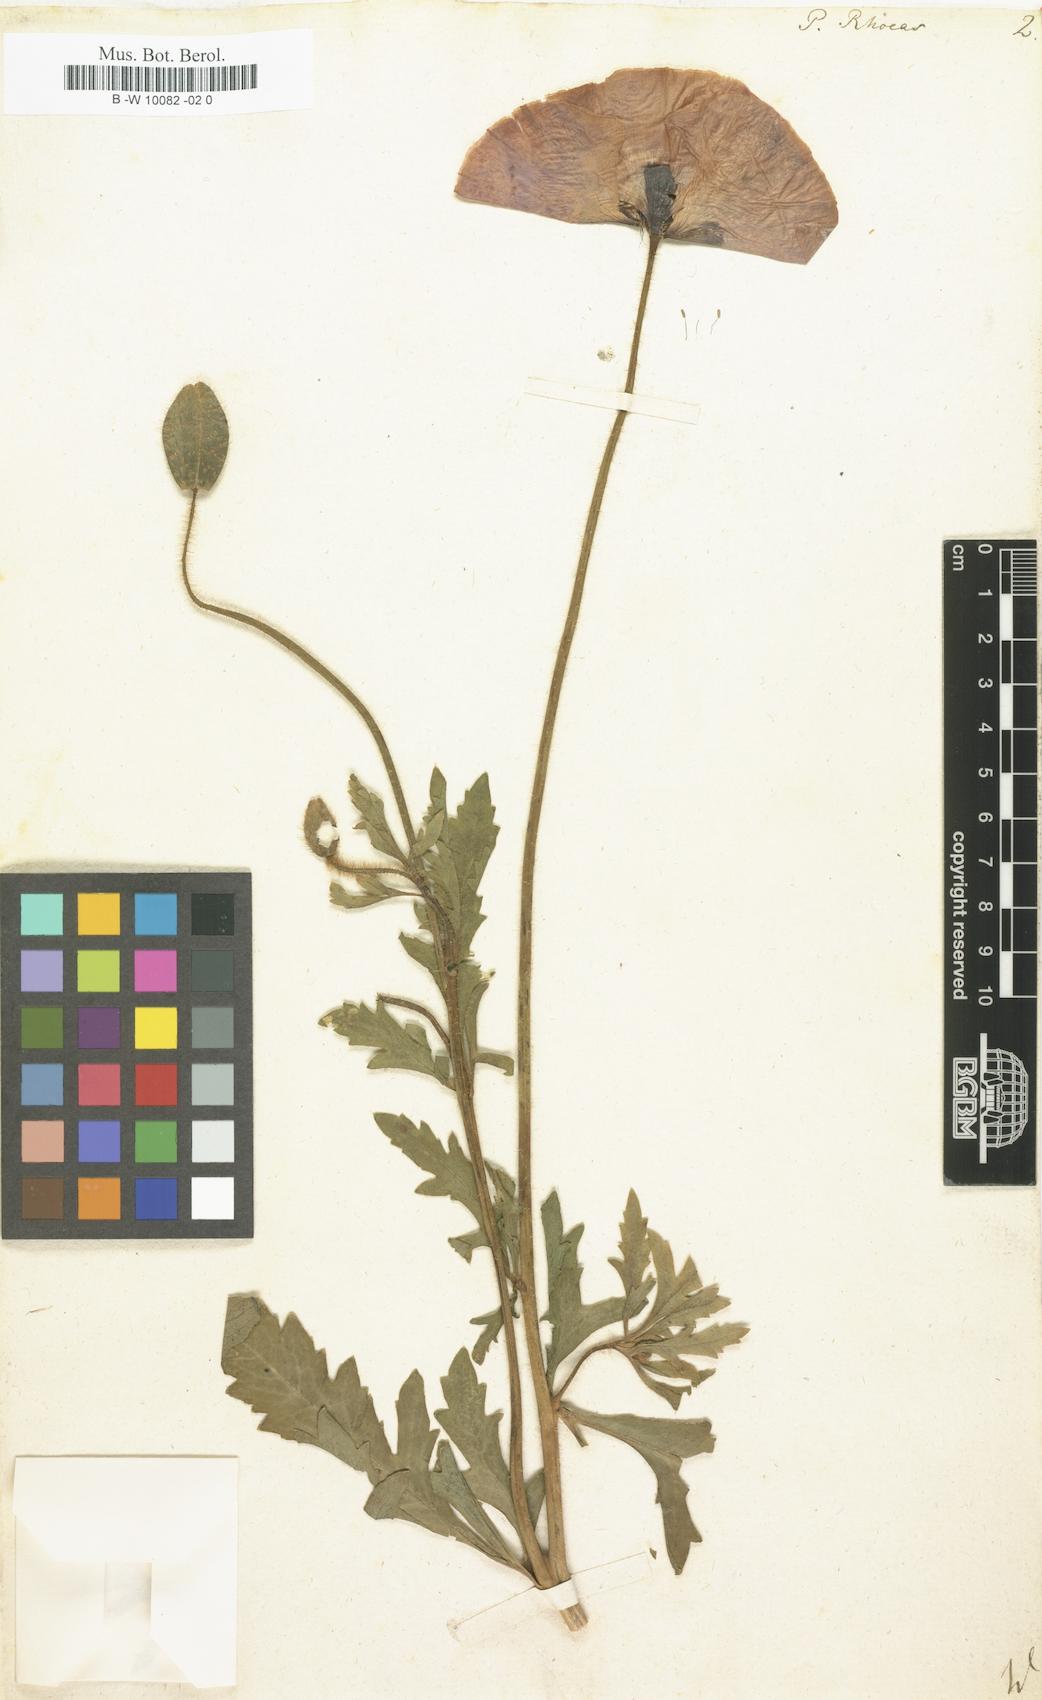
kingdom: Plantae
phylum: Tracheophyta
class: Magnoliopsida
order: Ranunculales
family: Papaveraceae
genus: Papaver
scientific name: Papaver rhoeas
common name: Corn poppy
